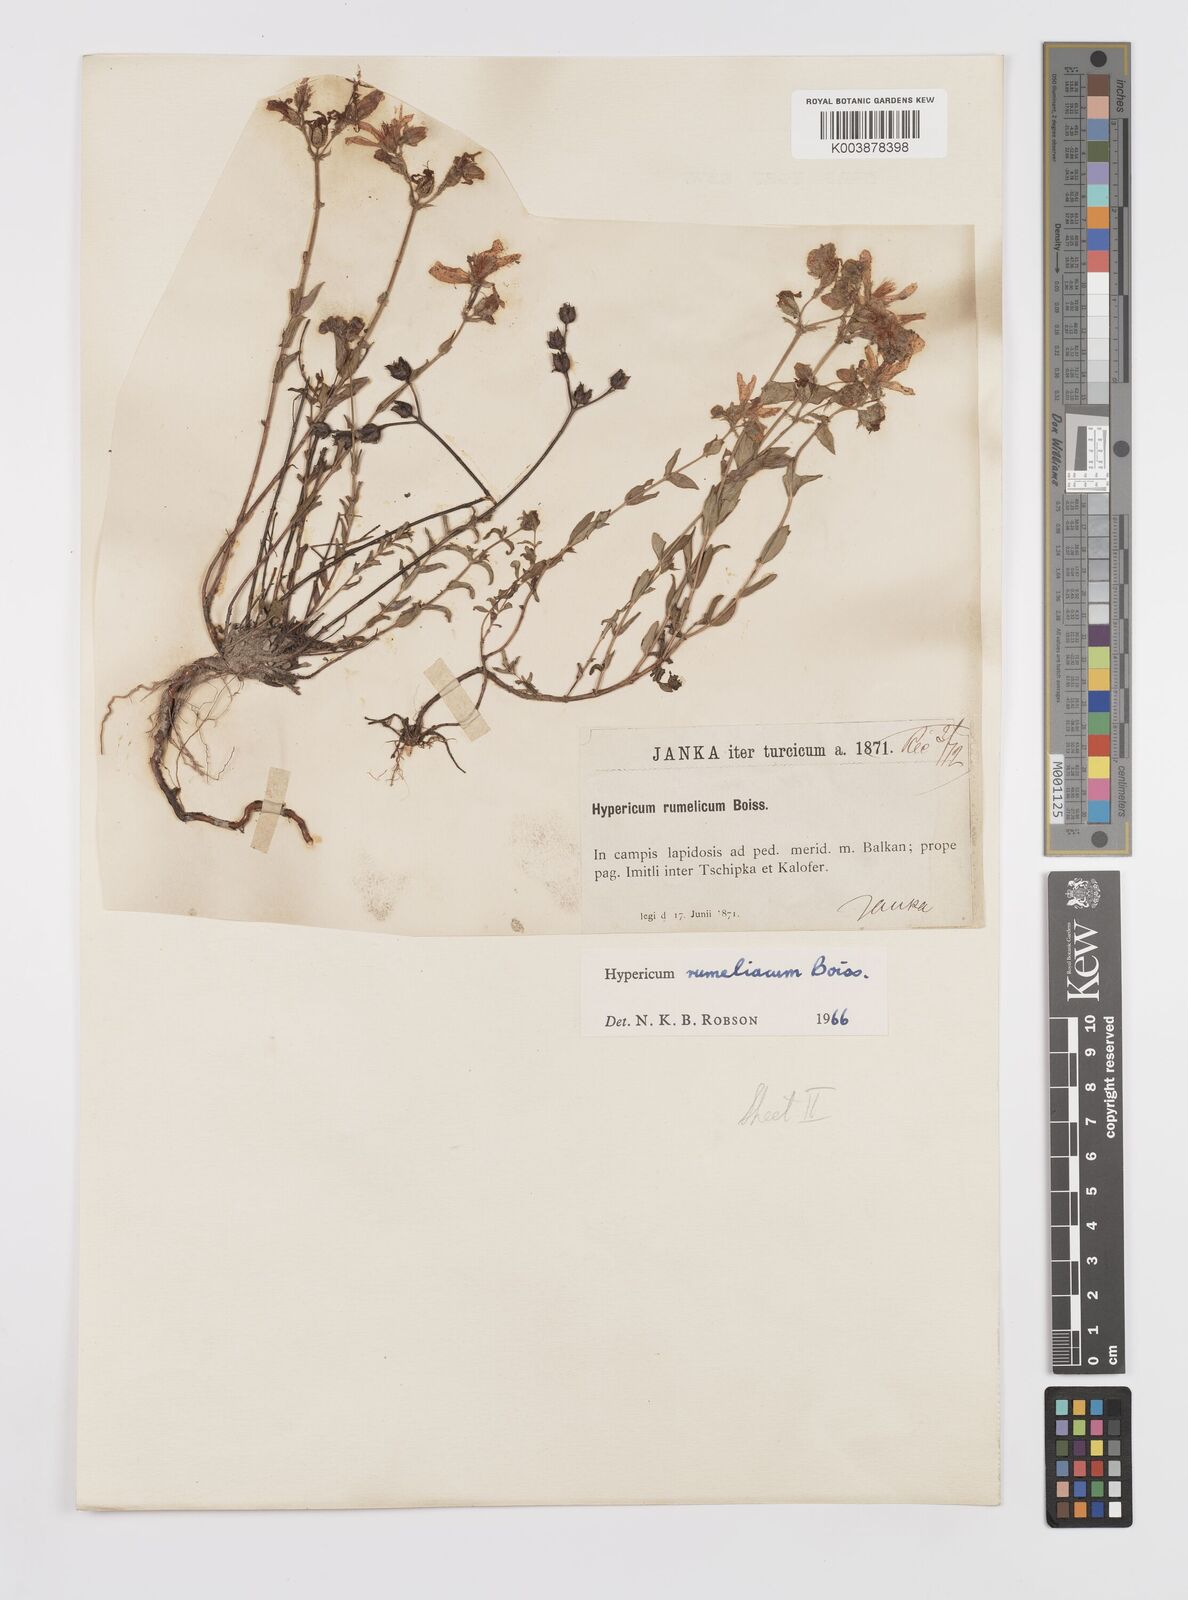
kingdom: Plantae
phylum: Tracheophyta
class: Magnoliopsida
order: Malpighiales
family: Hypericaceae
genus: Hypericum
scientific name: Hypericum rumeliacum
